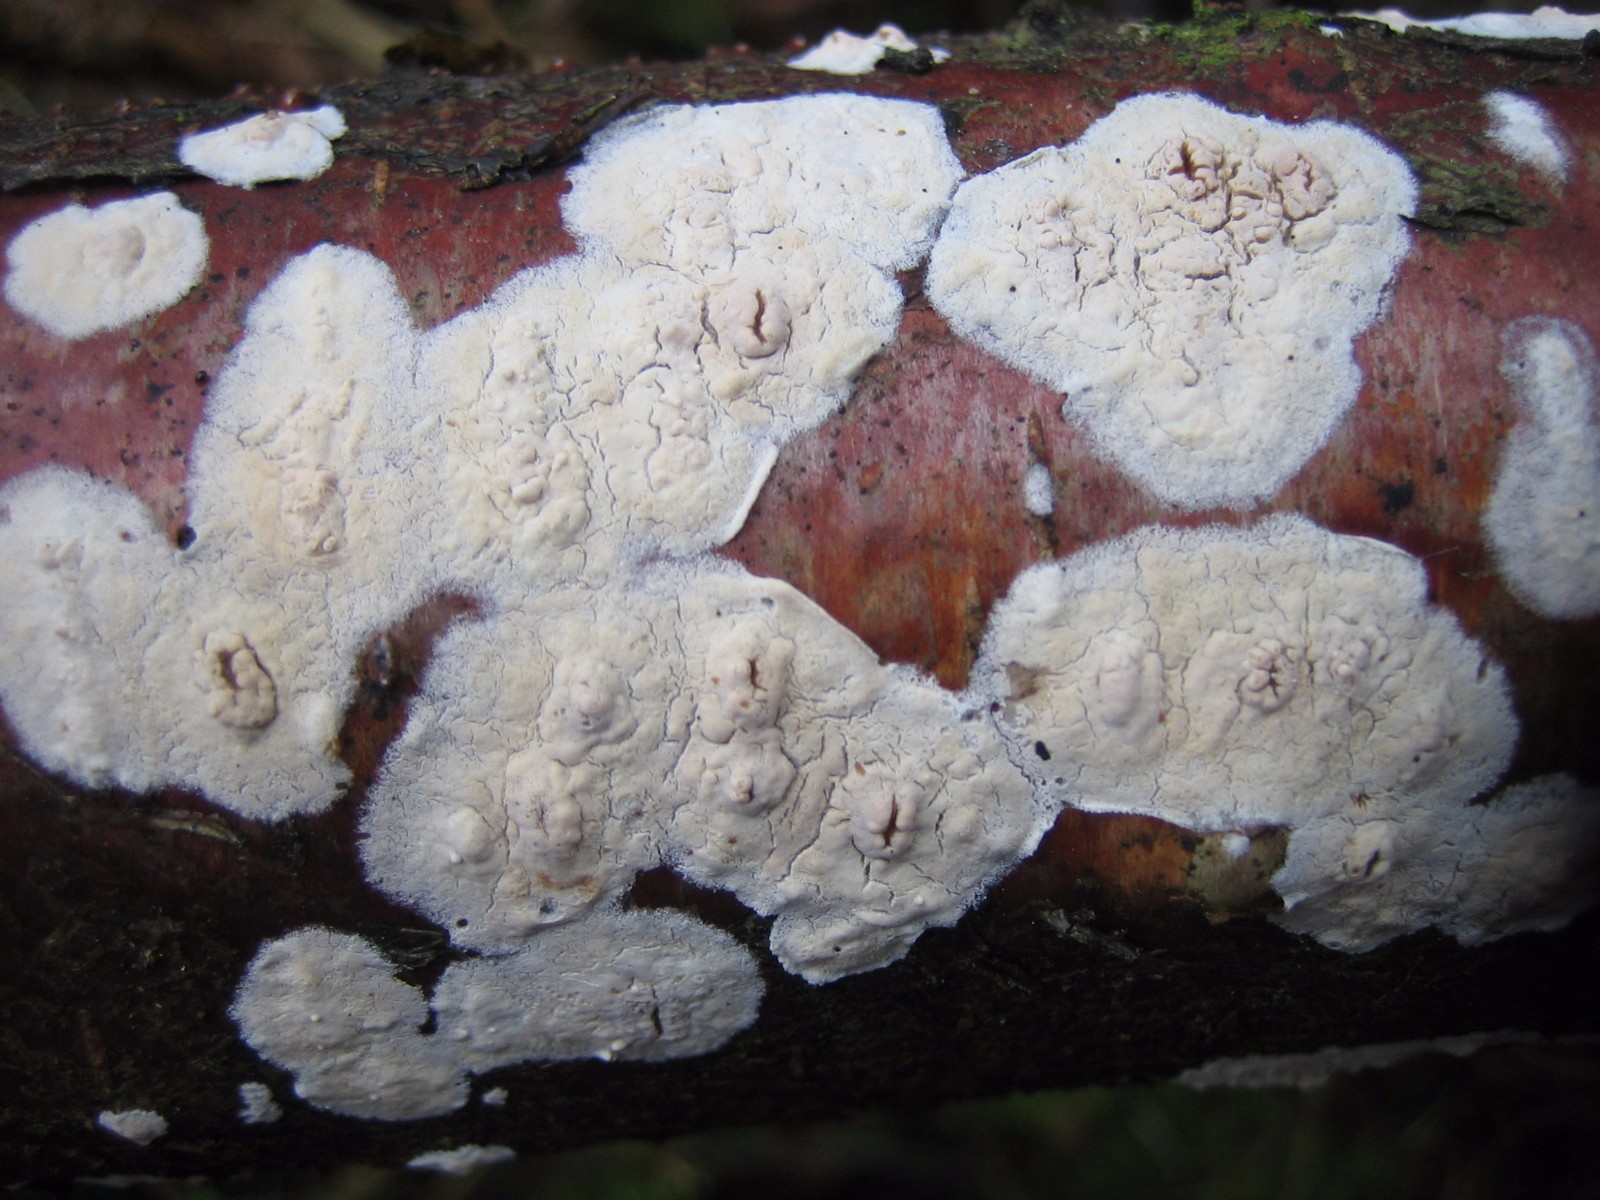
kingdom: Fungi
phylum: Basidiomycota
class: Agaricomycetes
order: Agaricales
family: Physalacriaceae
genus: Cylindrobasidium
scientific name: Cylindrobasidium evolvens
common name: sprækkehinde
